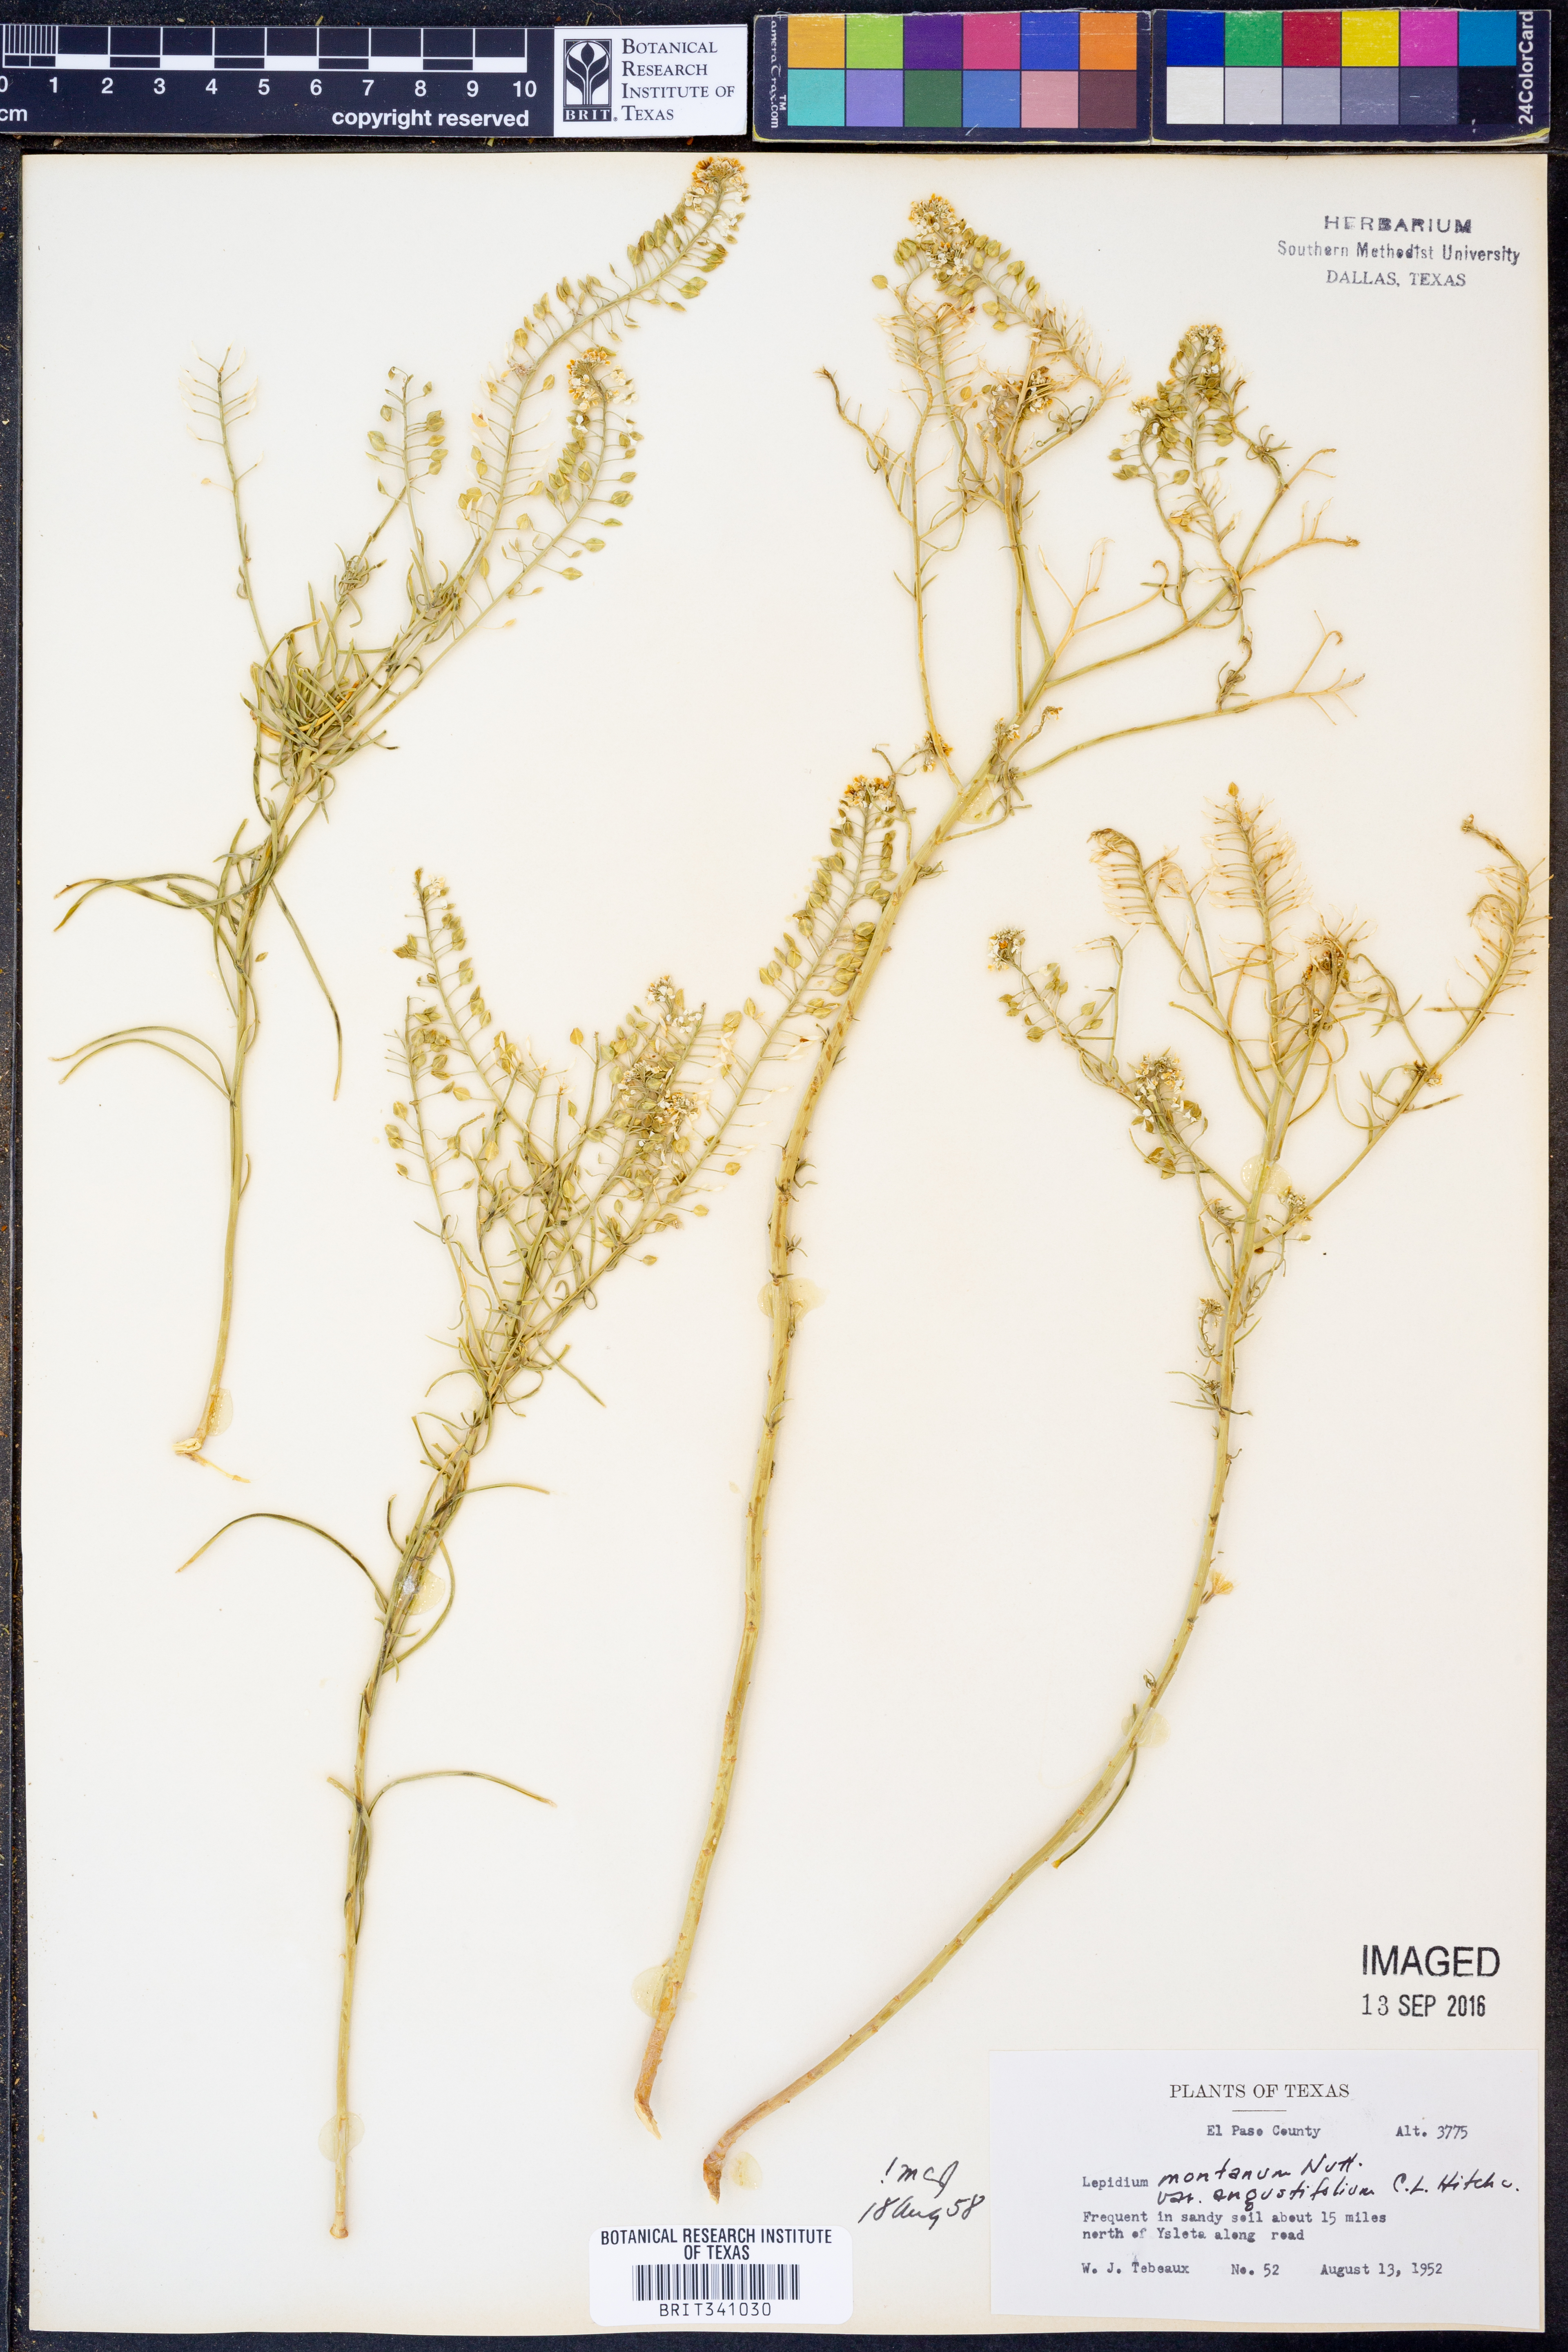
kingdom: Plantae
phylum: Tracheophyta
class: Magnoliopsida
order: Brassicales
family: Brassicaceae
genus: Lepidium
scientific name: Lepidium alyssoides
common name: Mesa pepperweed
